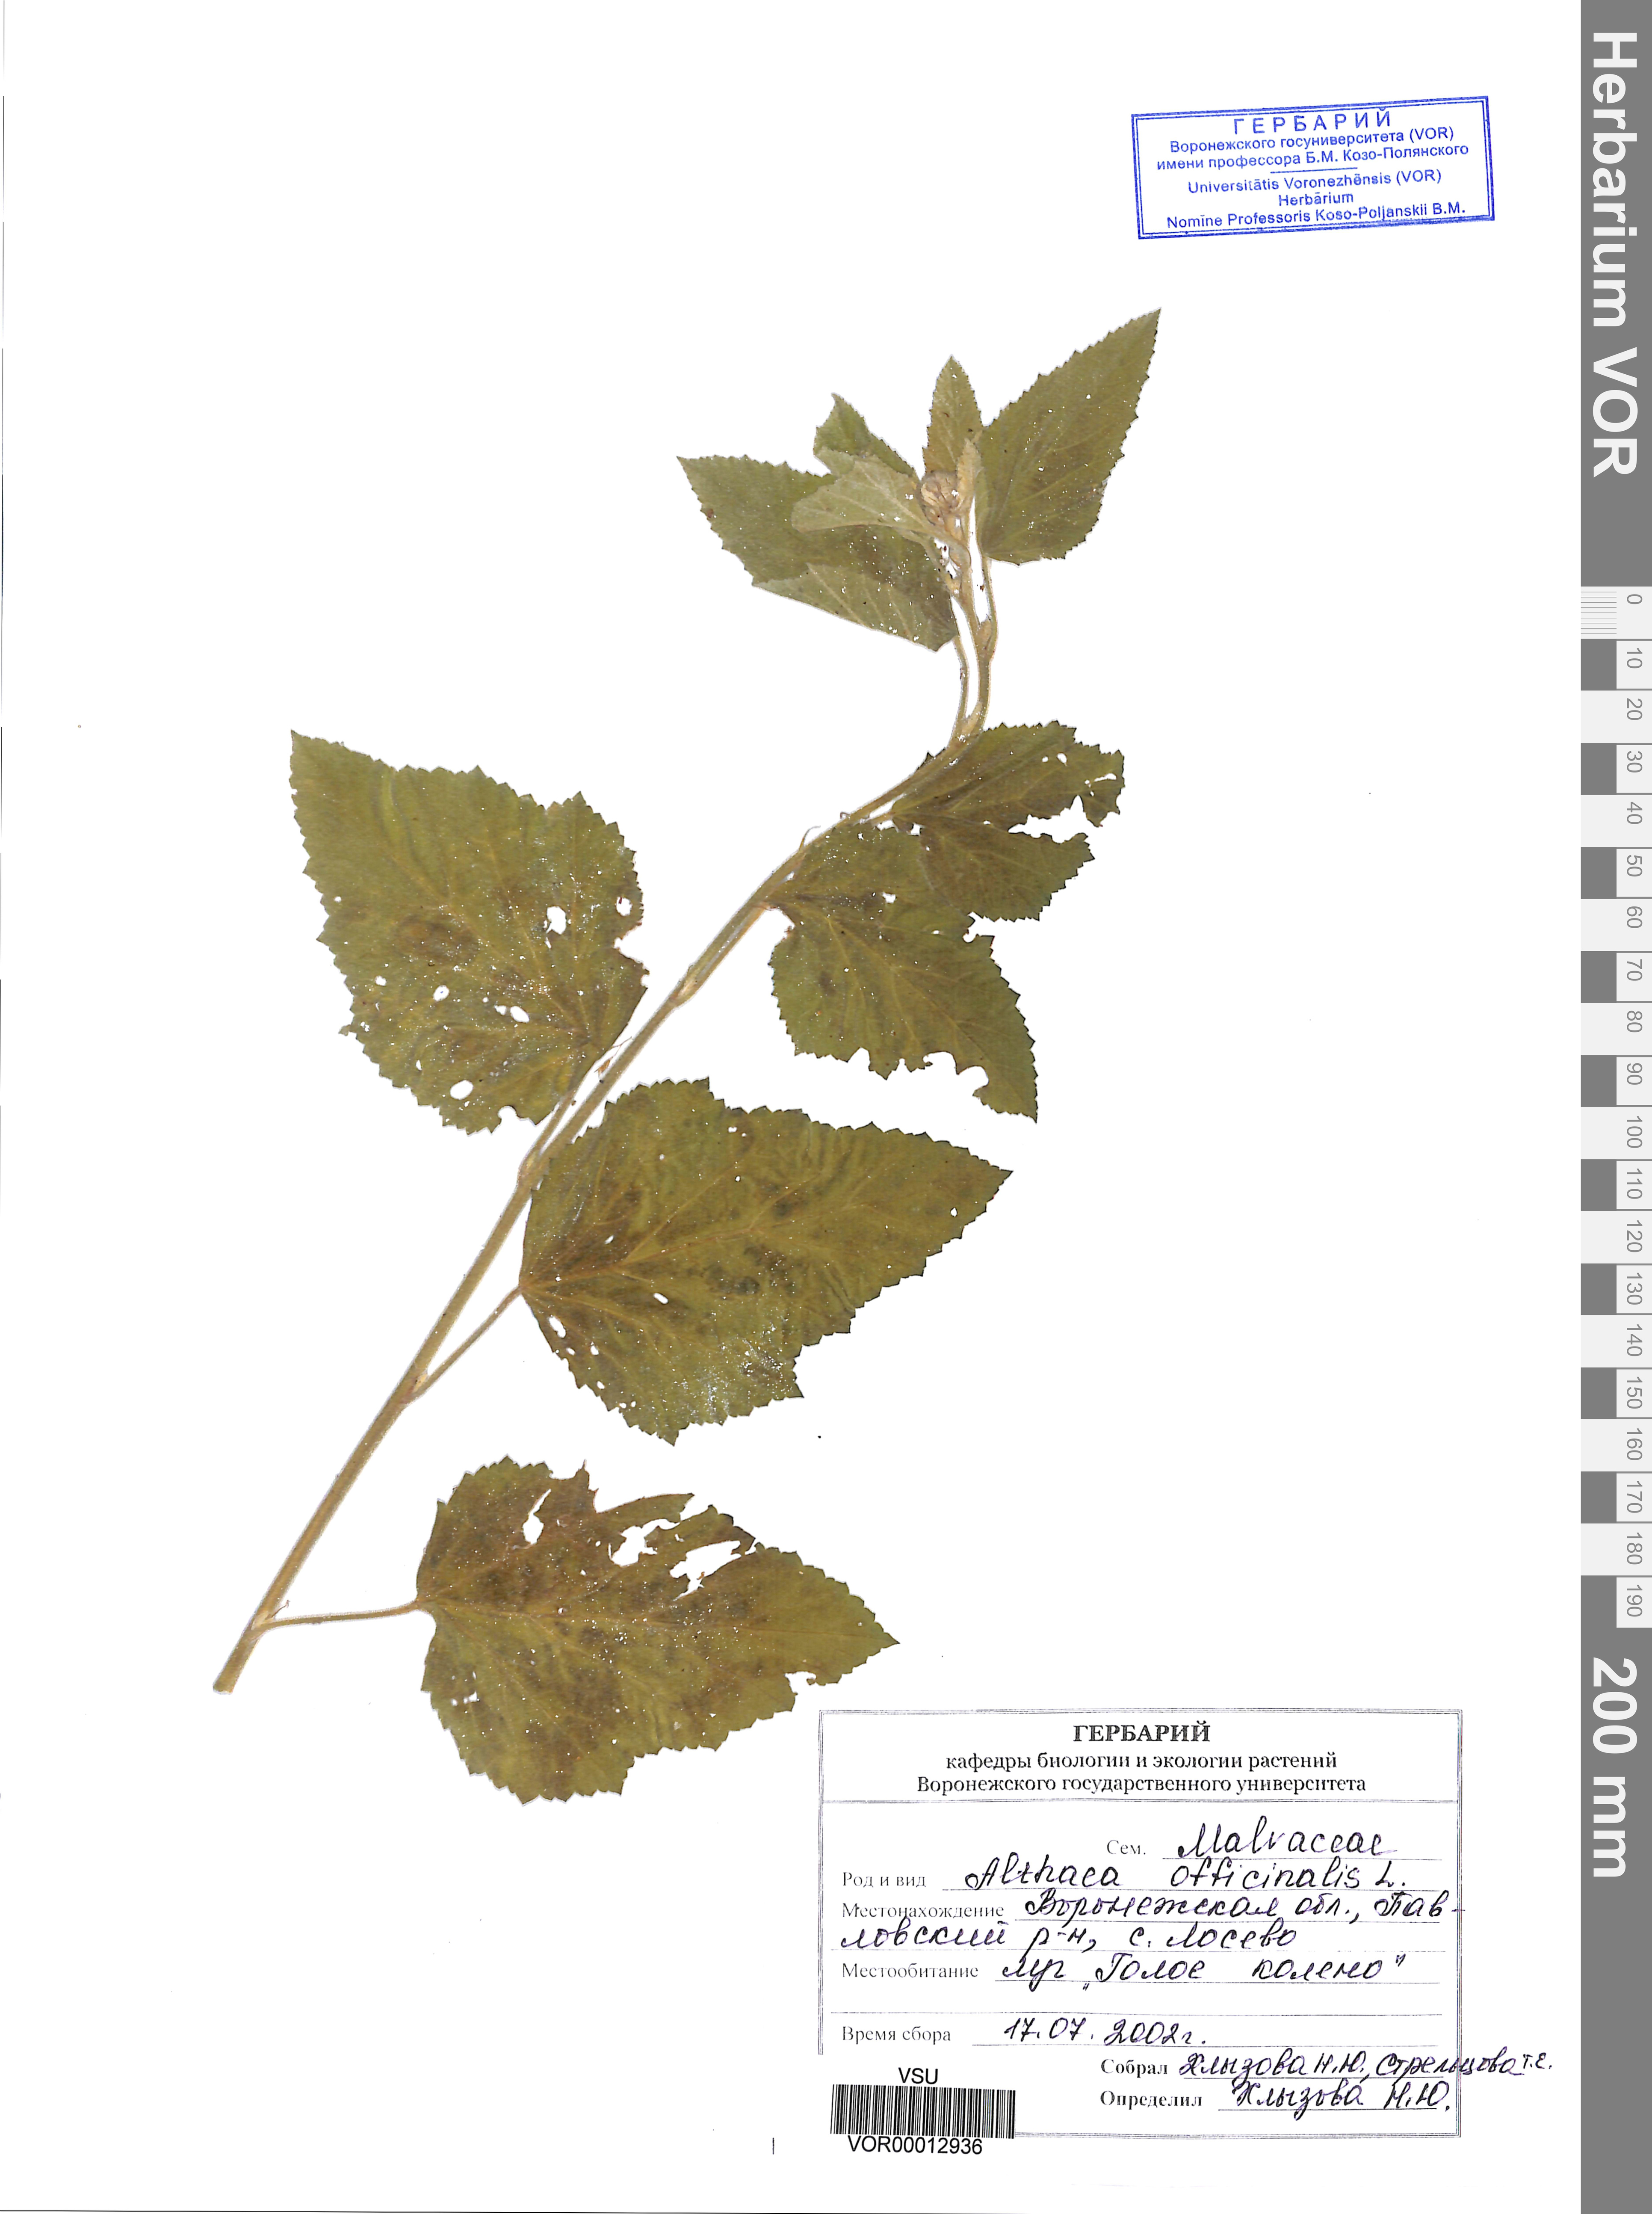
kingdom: Plantae
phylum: Tracheophyta
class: Magnoliopsida
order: Malvales
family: Malvaceae
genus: Althaea
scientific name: Althaea officinalis
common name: Marsh-mallow
